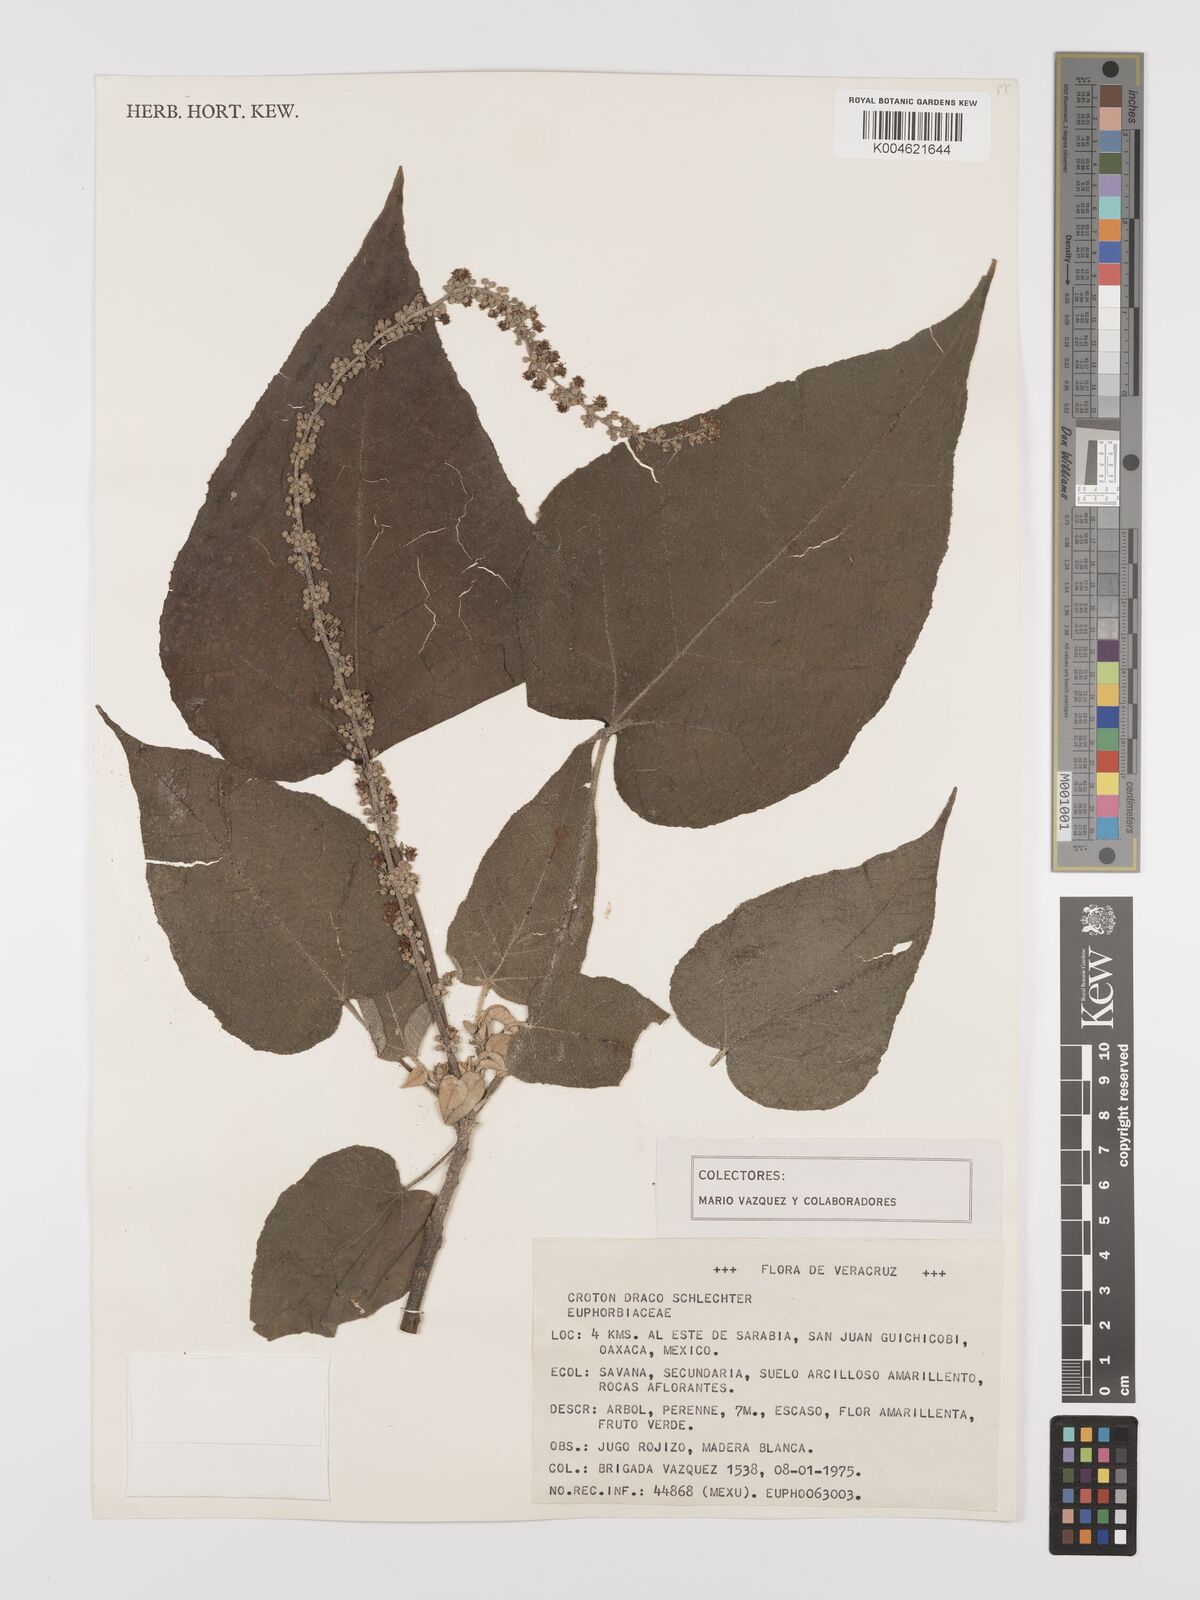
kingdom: Plantae
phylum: Tracheophyta
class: Magnoliopsida
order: Malpighiales
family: Euphorbiaceae
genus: Croton
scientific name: Croton hibiscifolius
